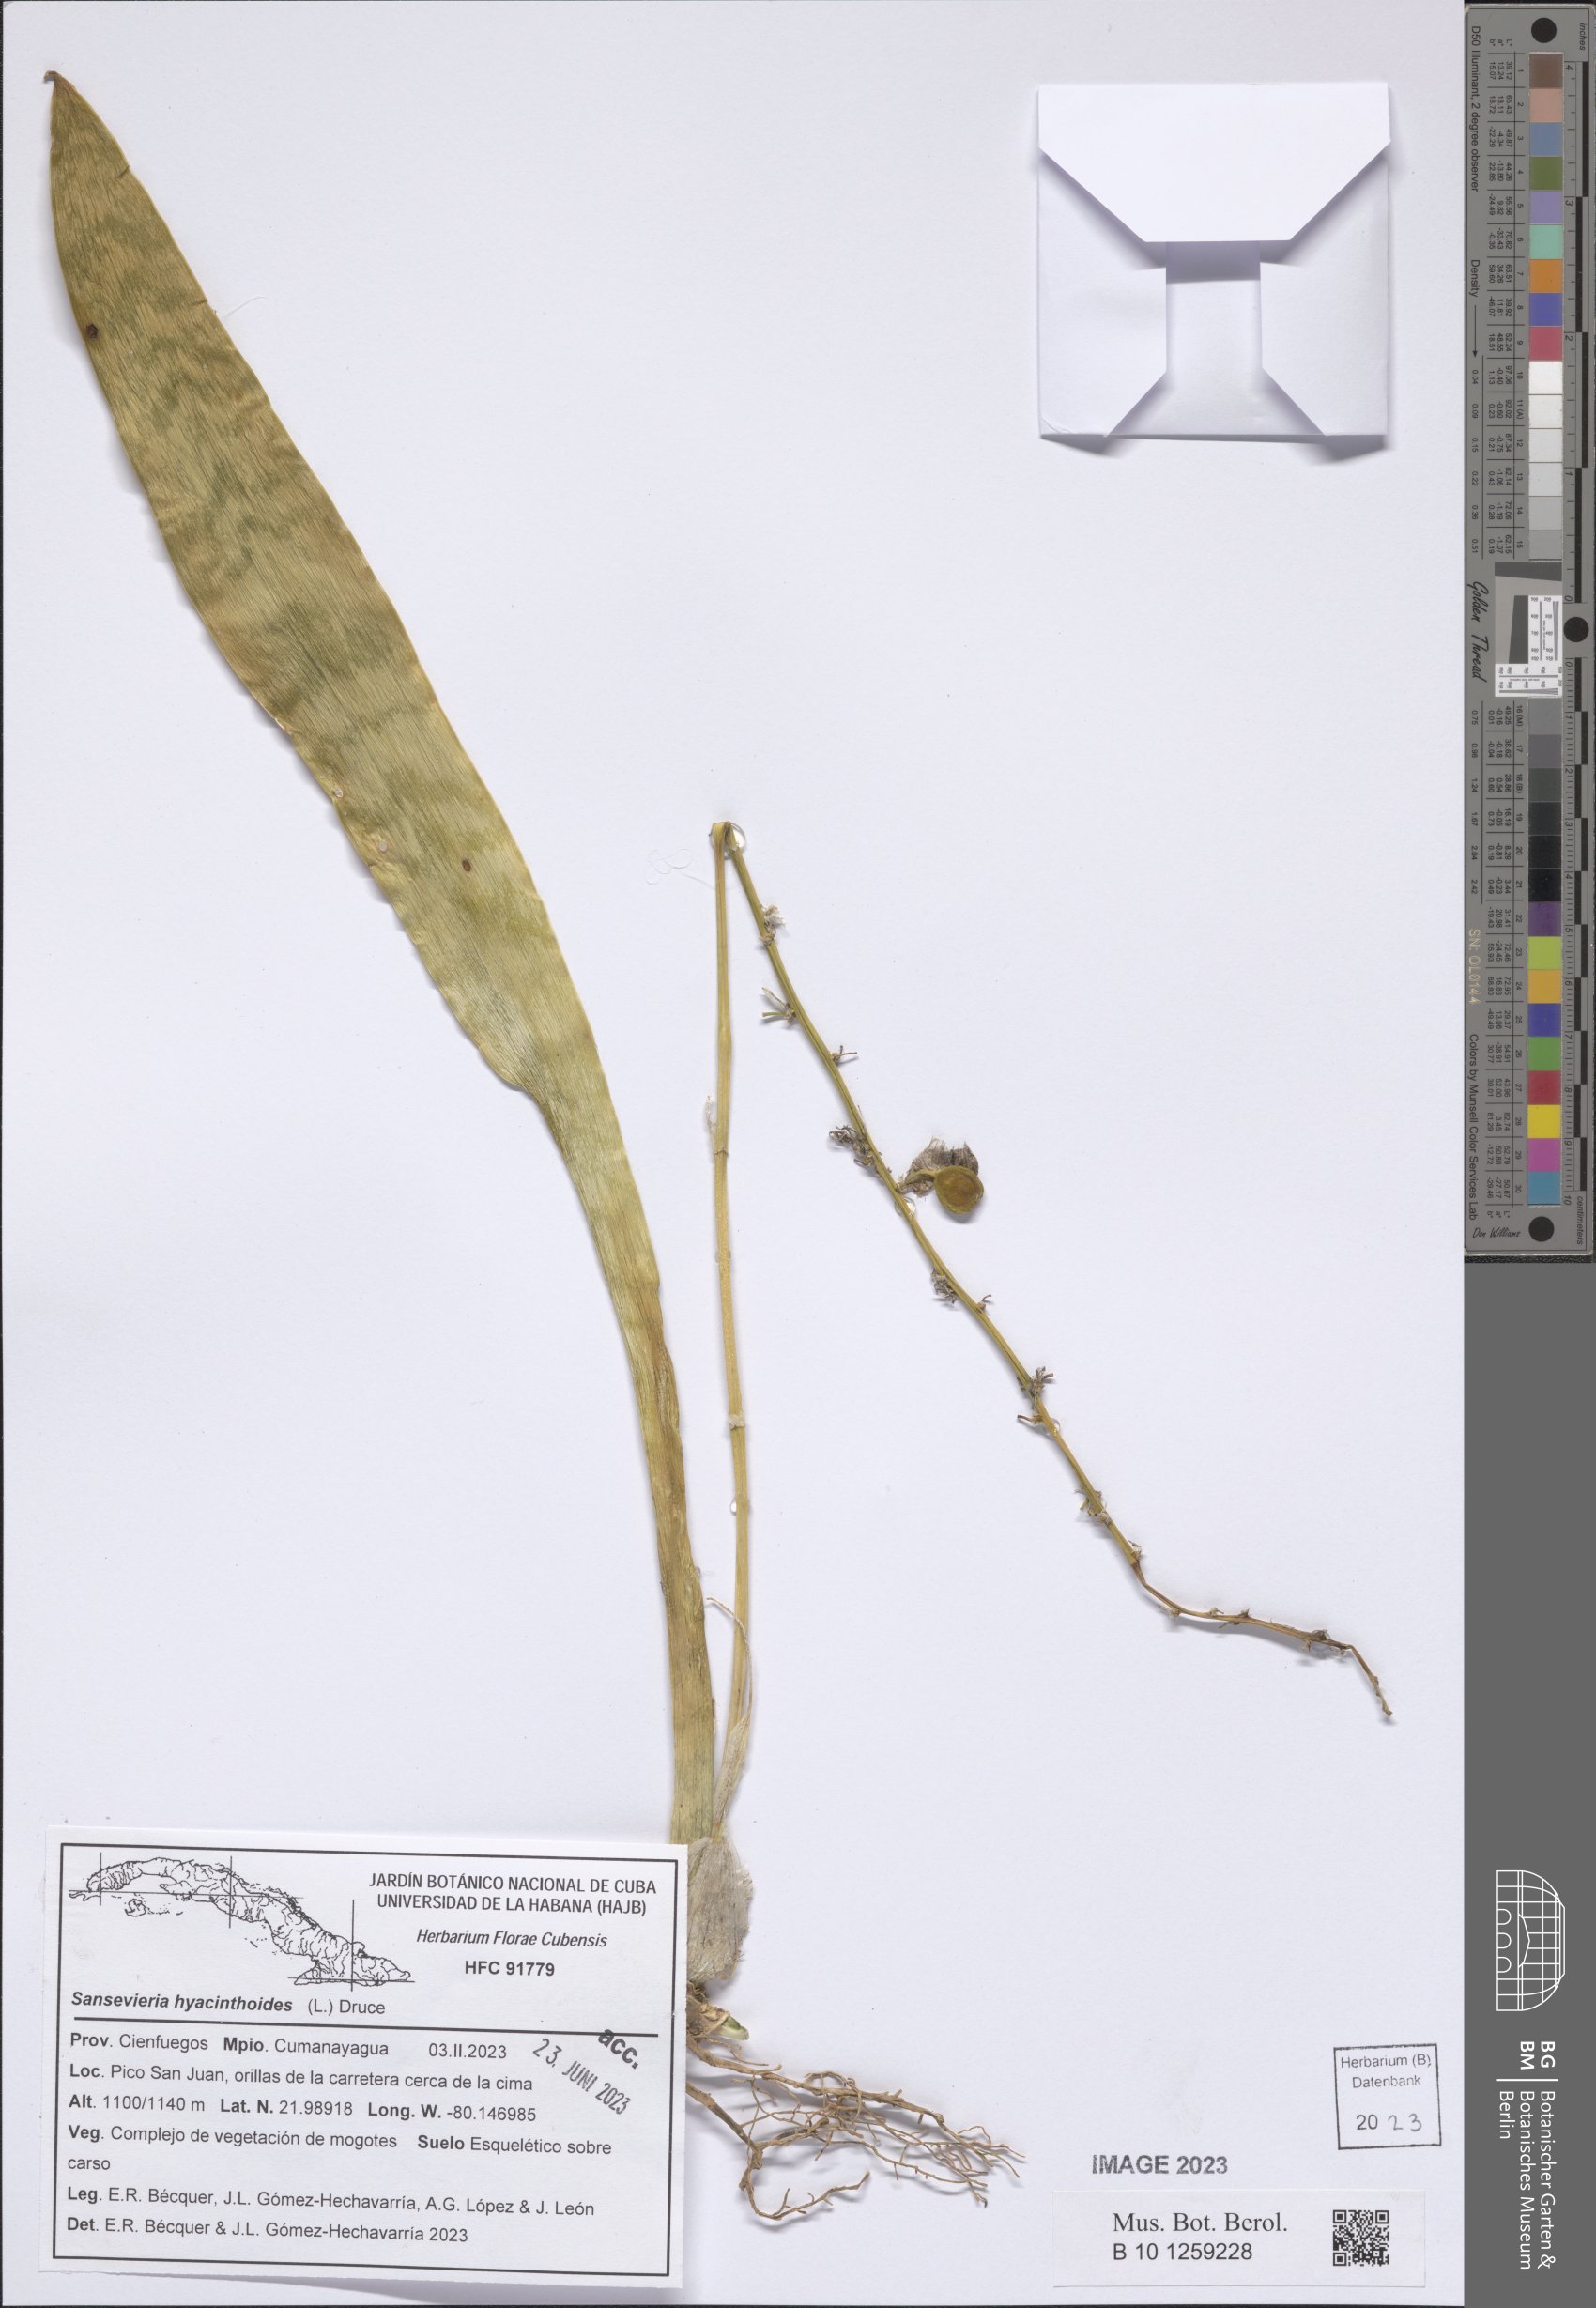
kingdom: Plantae
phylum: Tracheophyta
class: Liliopsida
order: Asparagales
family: Asparagaceae
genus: Dracaena
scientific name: Dracaena hyacinthoides
